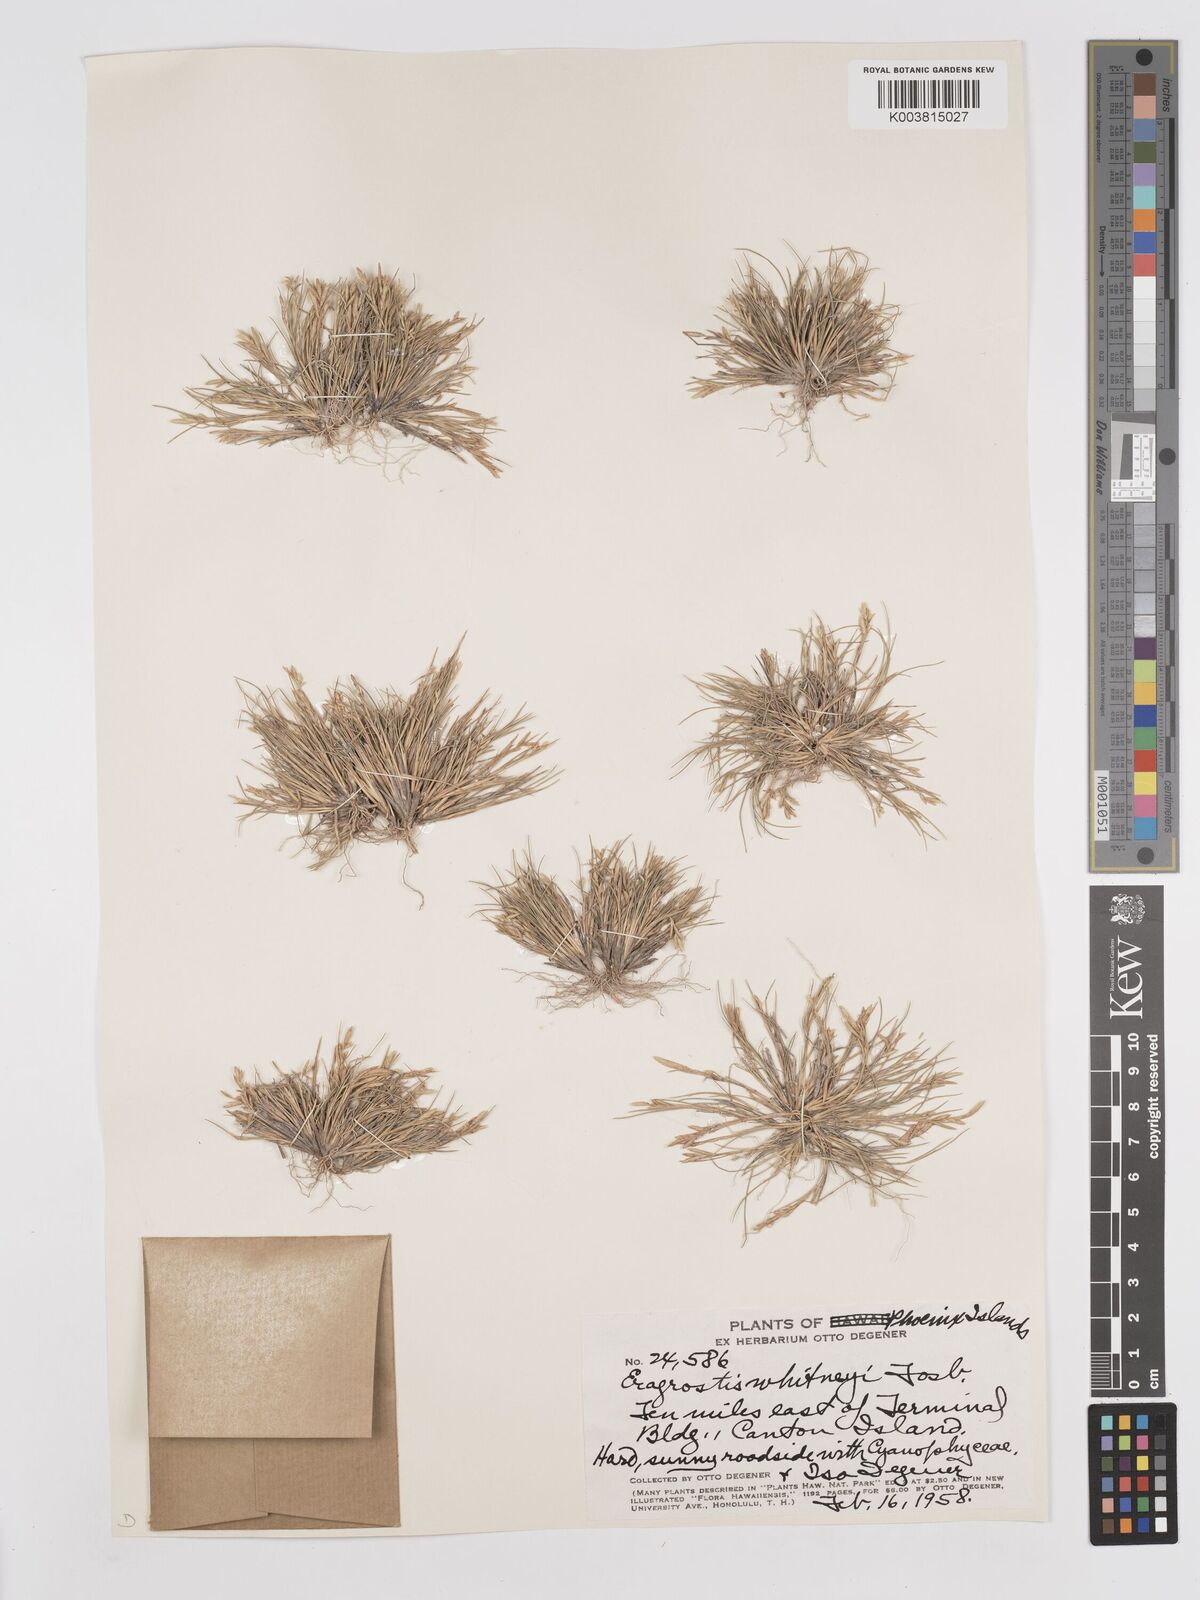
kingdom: Plantae
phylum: Tracheophyta
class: Liliopsida
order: Poales
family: Poaceae
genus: Eragrostis
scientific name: Eragrostis paupera
